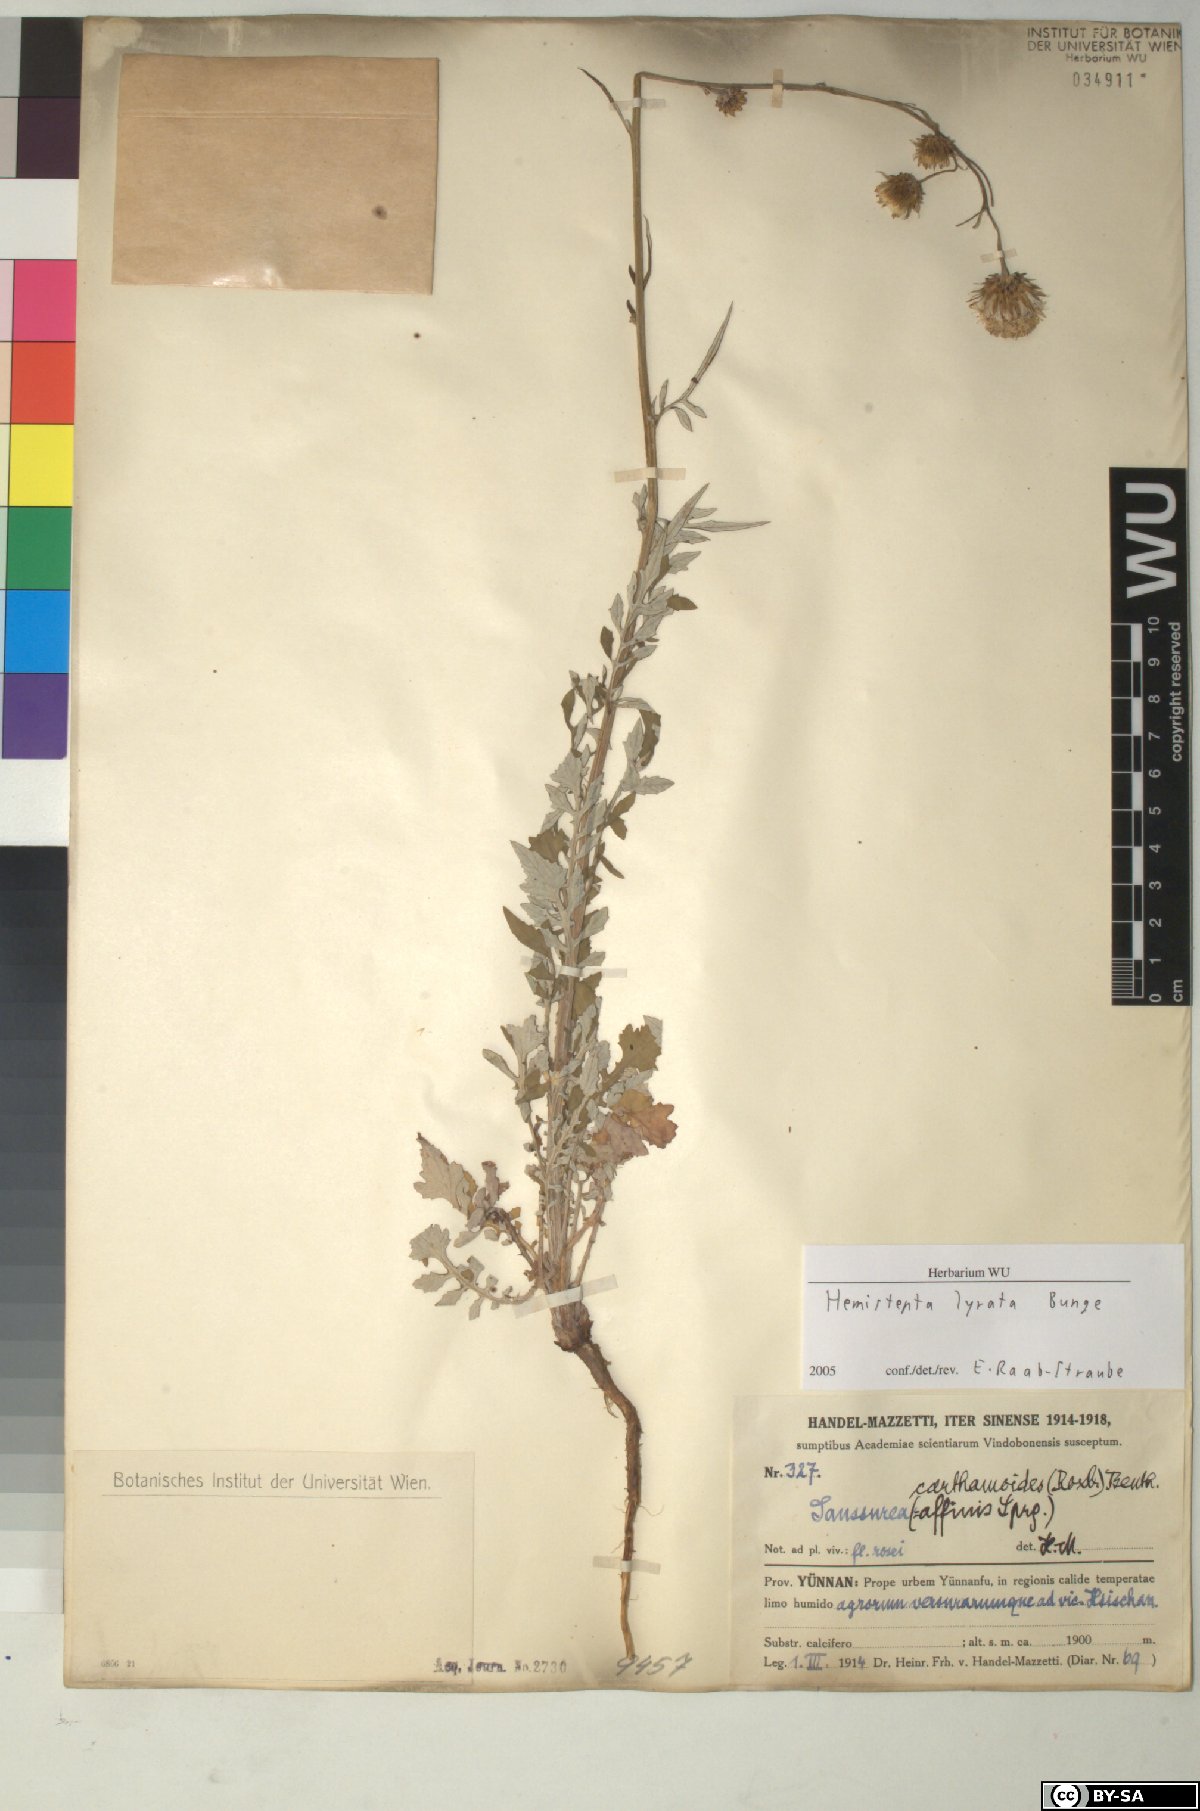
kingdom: Plantae
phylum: Tracheophyta
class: Magnoliopsida
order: Asterales
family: Asteraceae
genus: Saussurea
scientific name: Saussurea Hemisteptia lyrata
